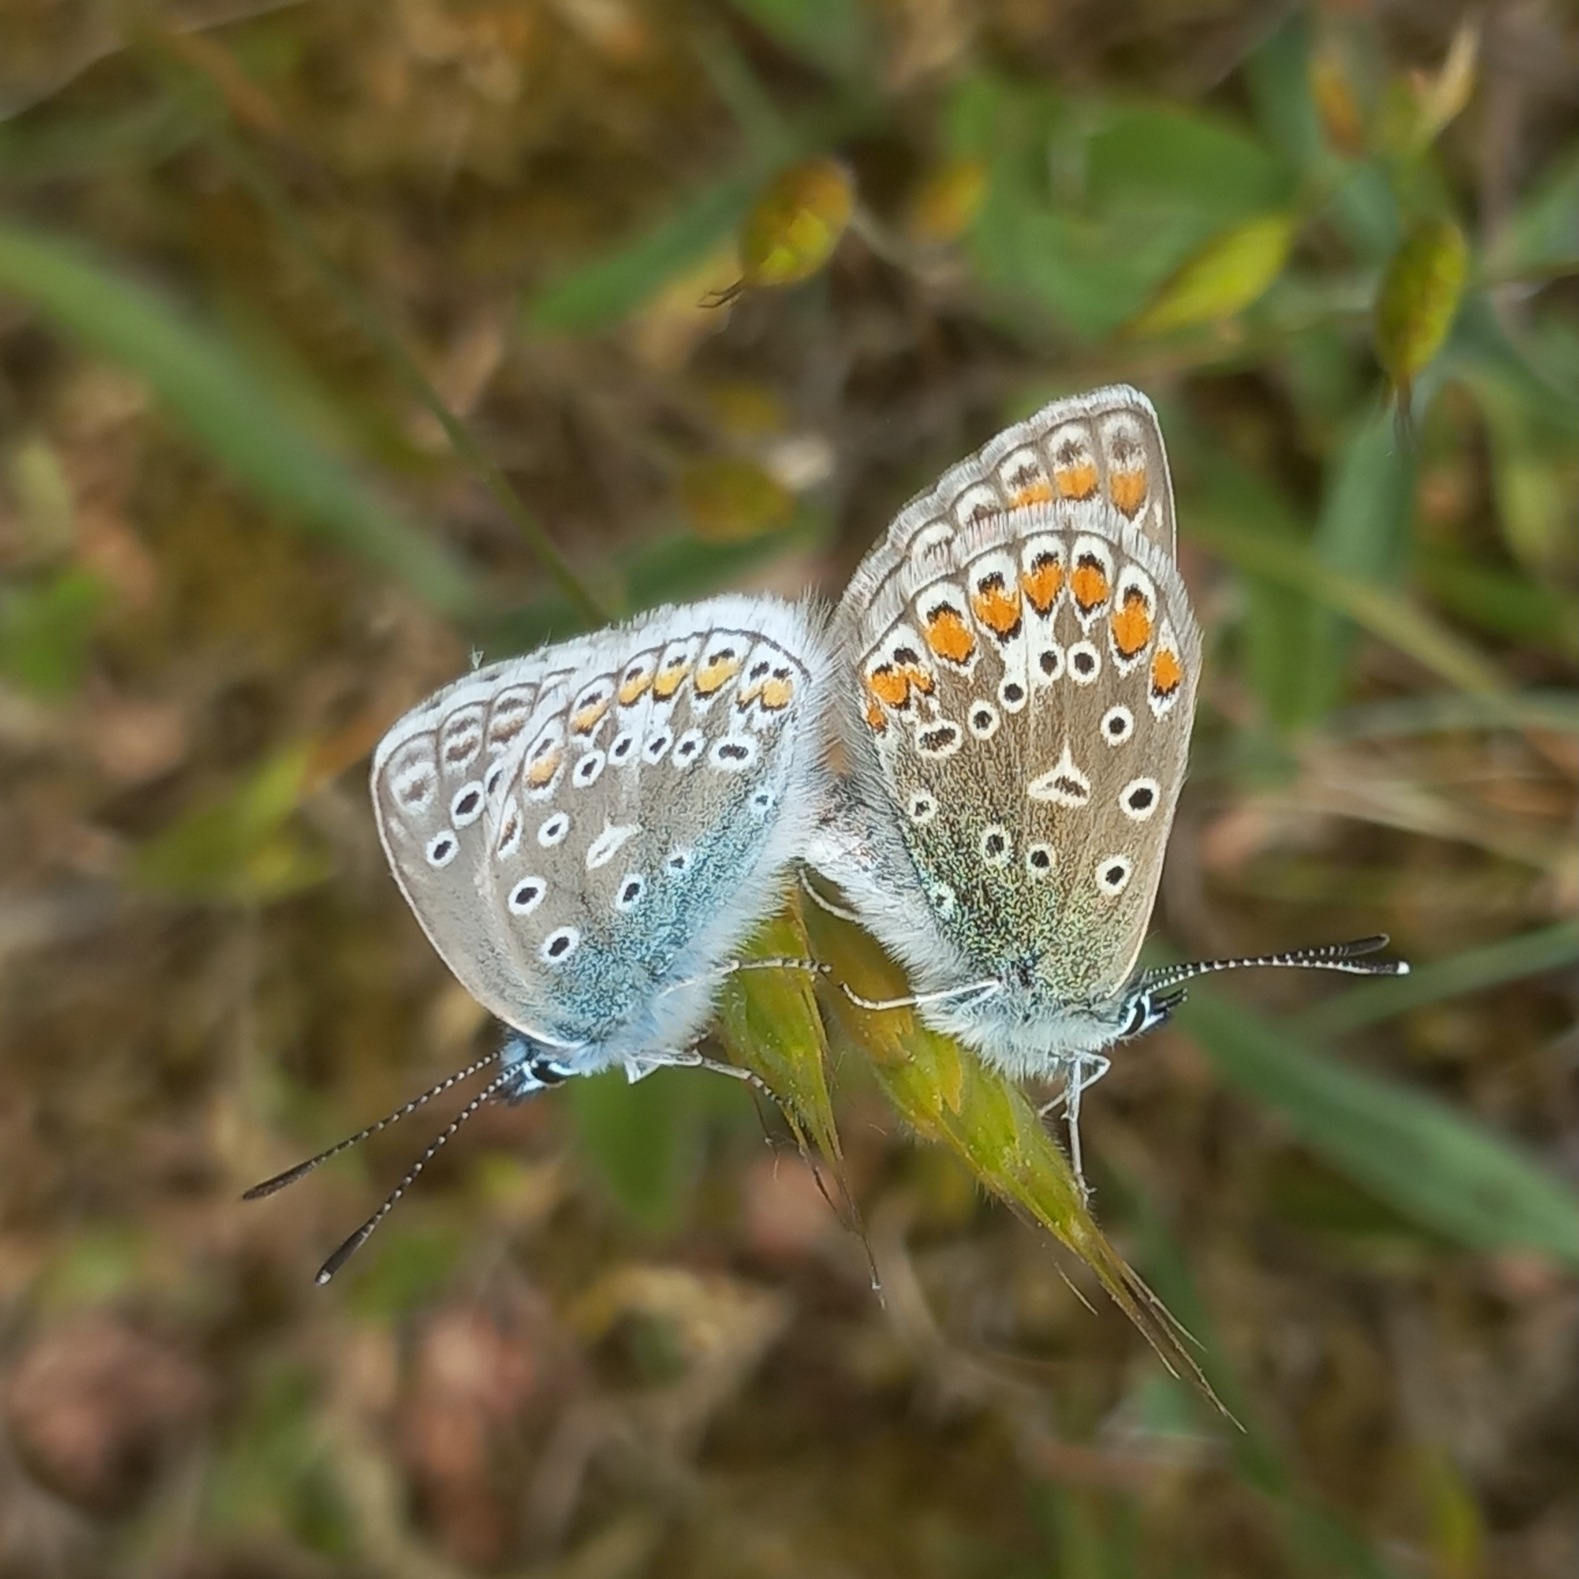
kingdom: Animalia
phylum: Arthropoda
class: Insecta
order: Lepidoptera
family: Lycaenidae
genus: Polyommatus
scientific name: Polyommatus icarus
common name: Almindelig blåfugl
